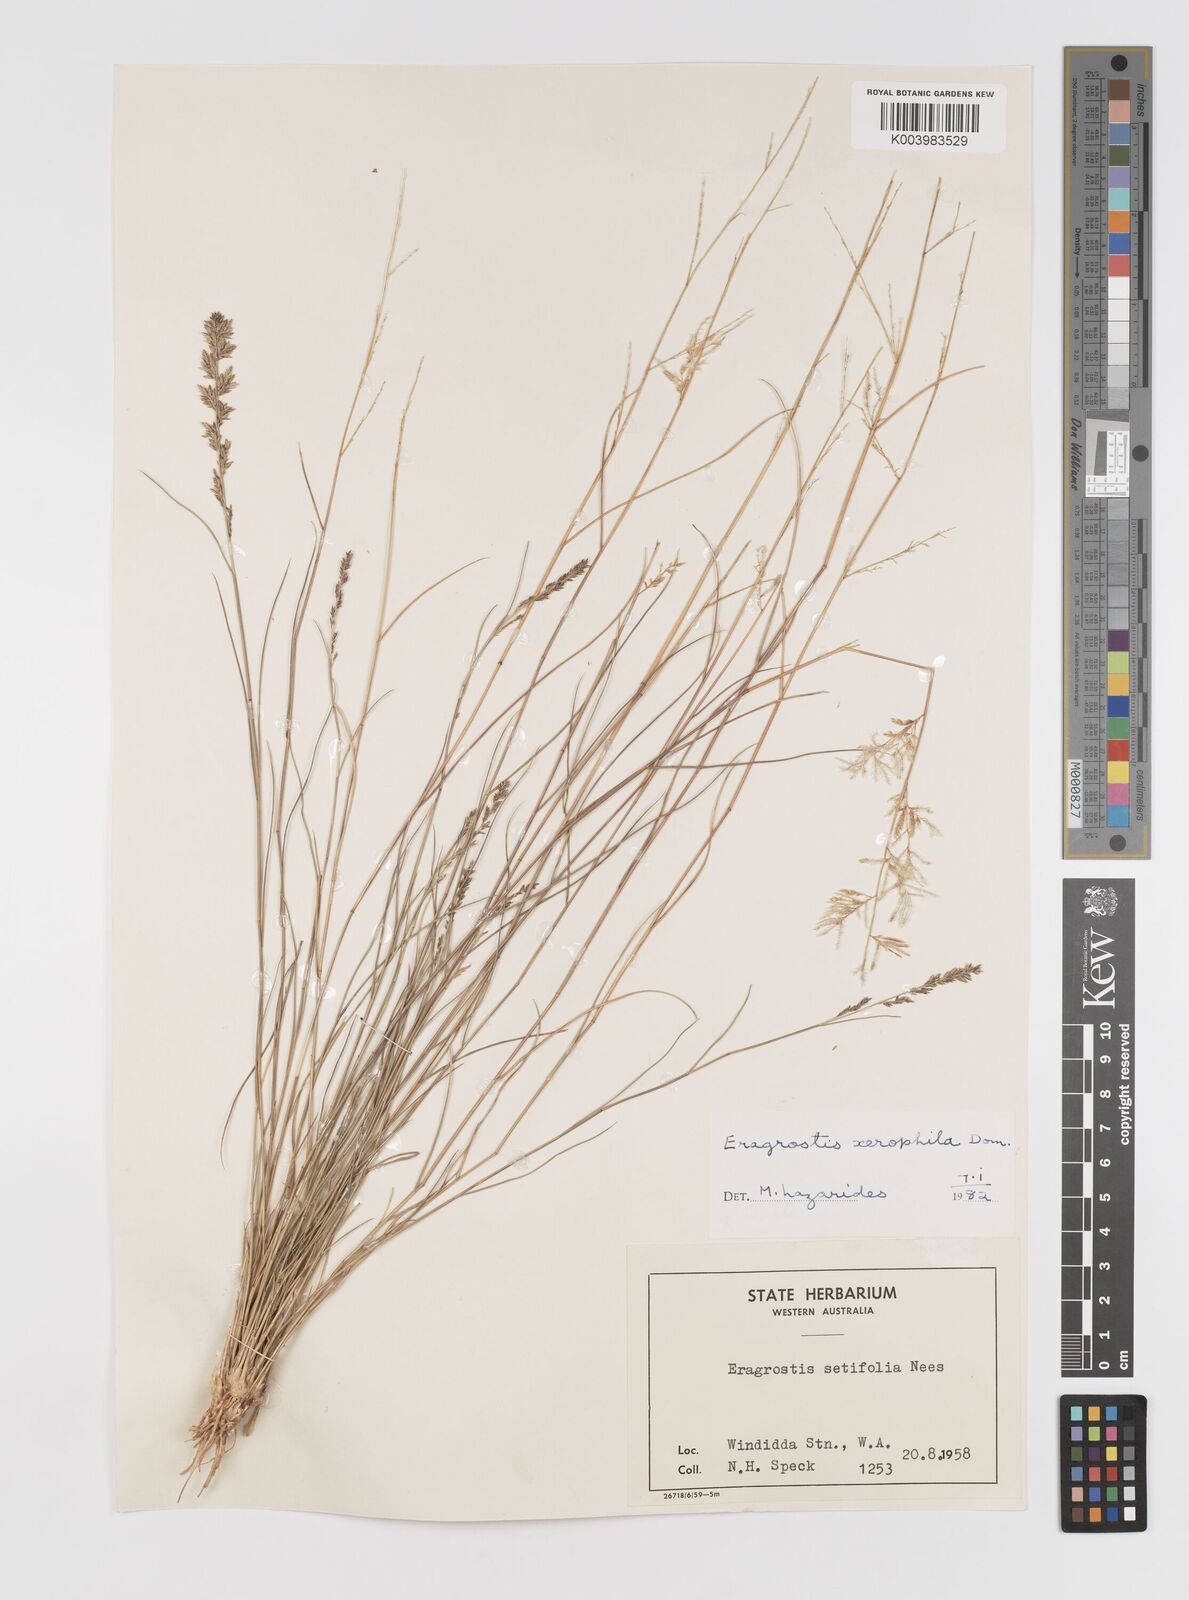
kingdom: Plantae
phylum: Tracheophyta
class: Liliopsida
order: Poales
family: Poaceae
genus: Eragrostis
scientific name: Eragrostis xerophila
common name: Wire wandarrie grass
